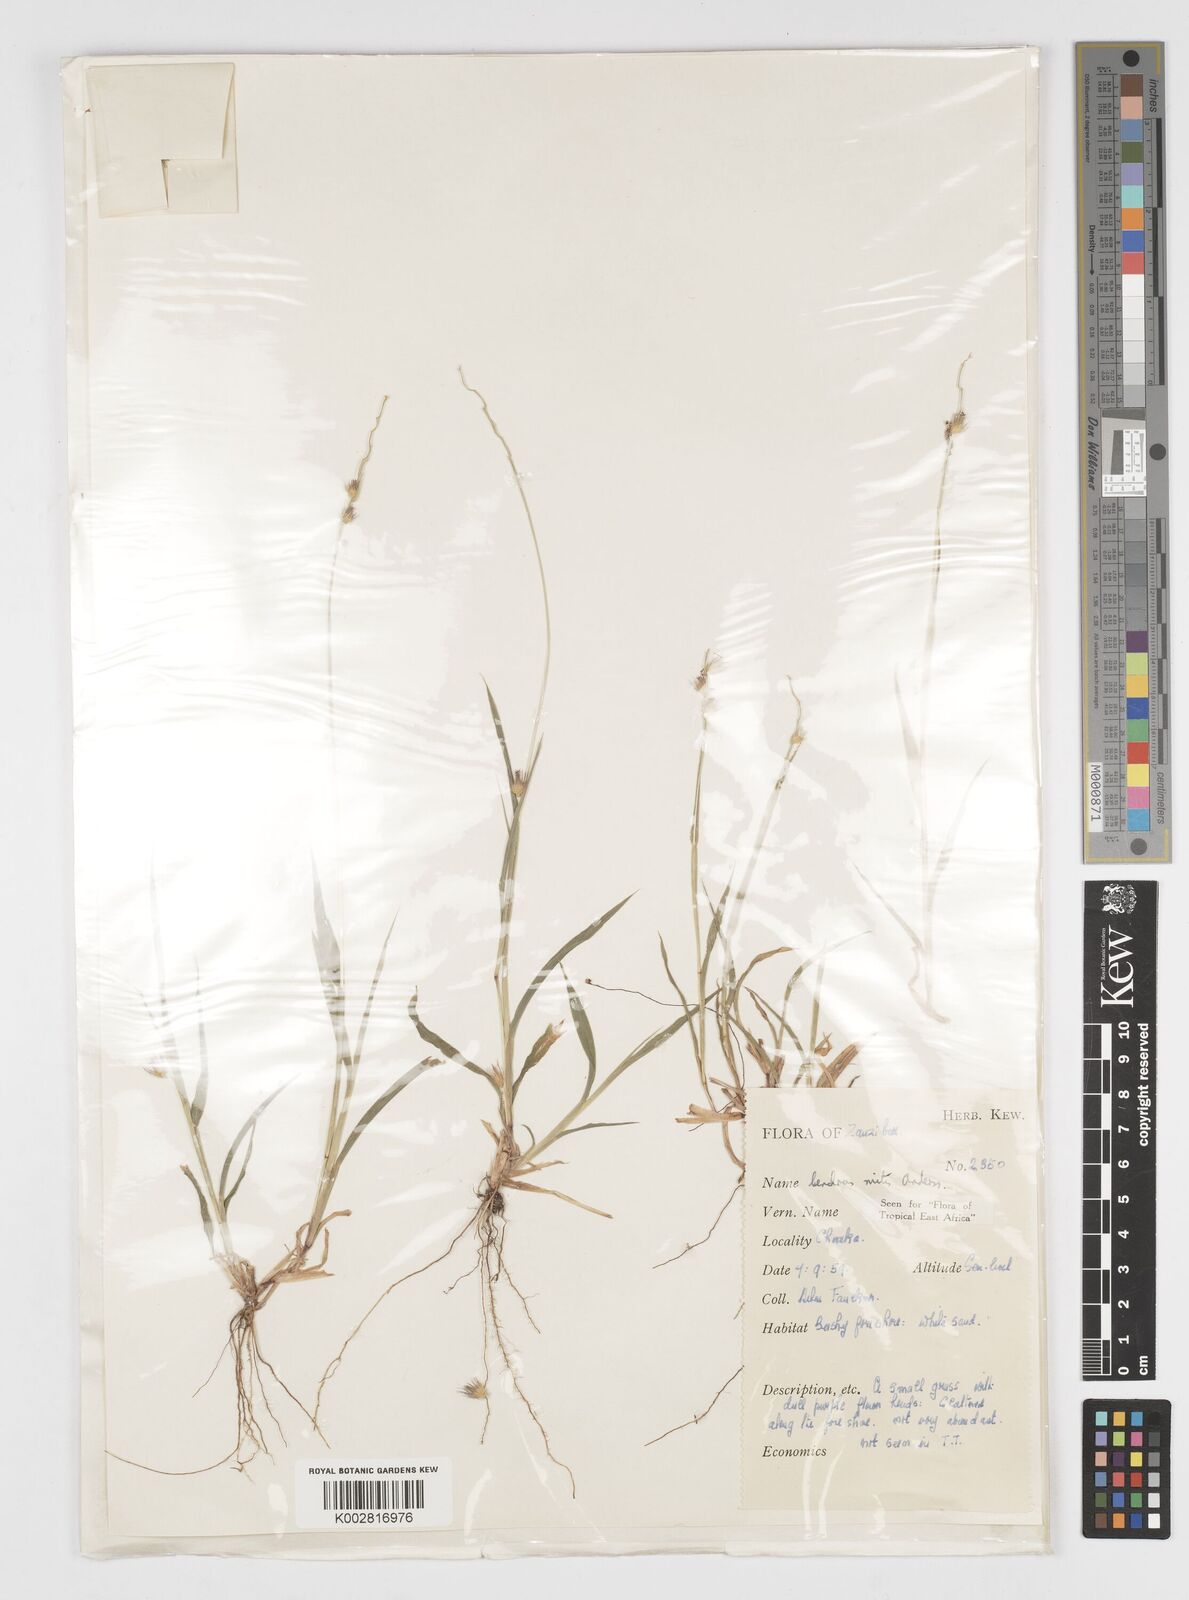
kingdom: Plantae
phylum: Tracheophyta
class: Liliopsida
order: Poales
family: Poaceae
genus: Cenchrus
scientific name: Cenchrus mitis
